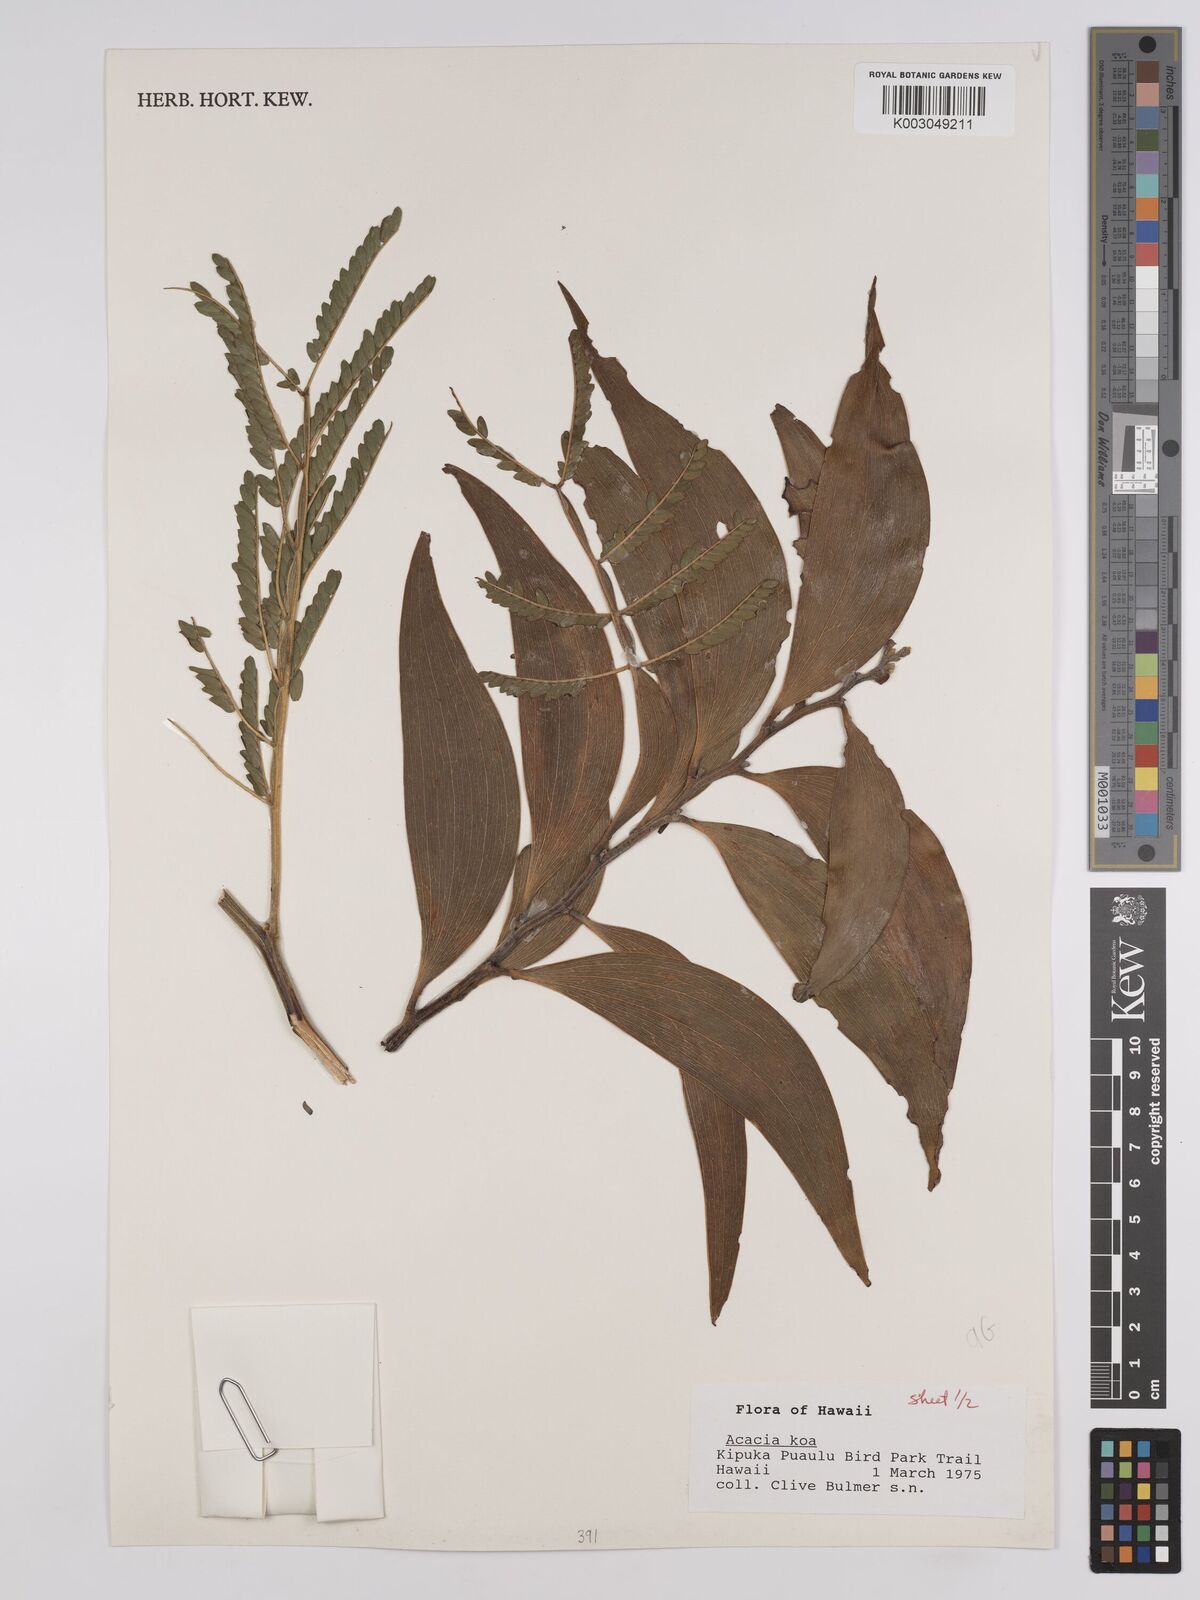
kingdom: Plantae
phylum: Tracheophyta
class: Magnoliopsida
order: Fabales
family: Fabaceae
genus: Acacia
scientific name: Acacia koa
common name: Gray koa
